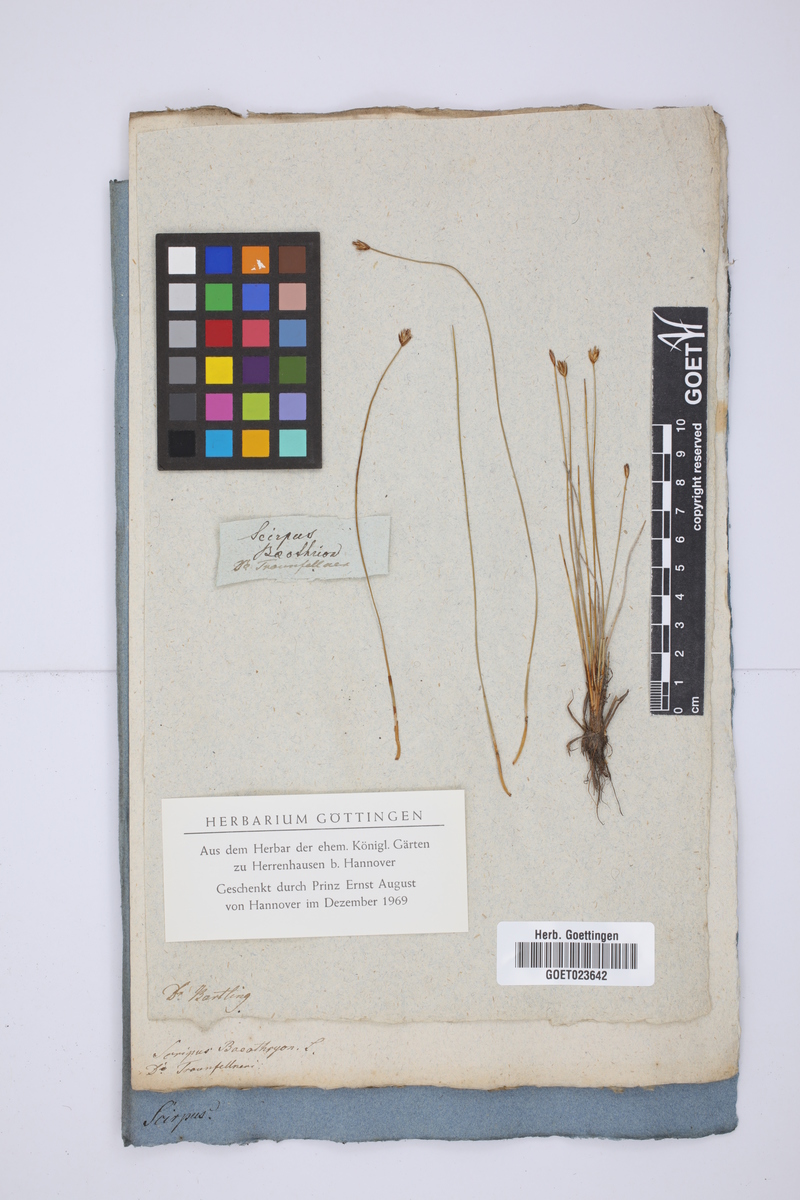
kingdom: Plantae
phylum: Tracheophyta
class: Liliopsida
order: Poales
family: Cyperaceae
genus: Eleocharis
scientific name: Eleocharis quinqueflora
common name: Few-flowered spike-rush
